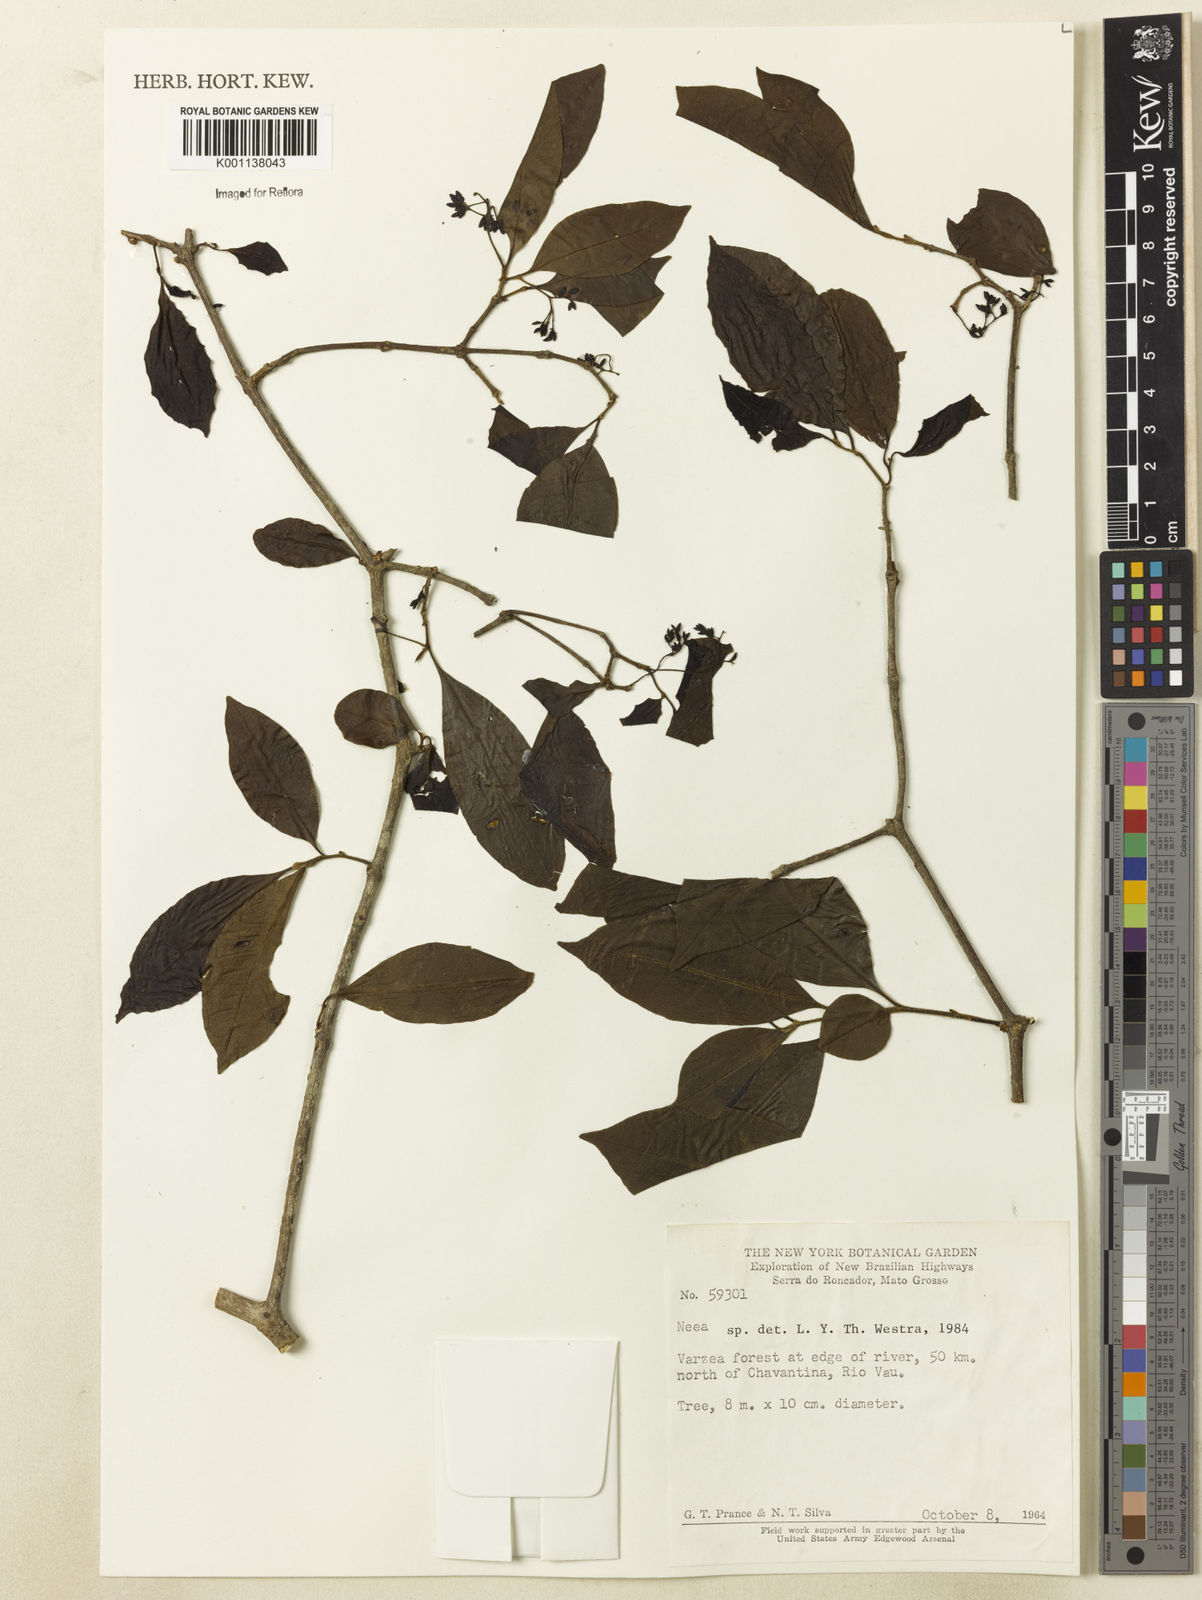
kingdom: Plantae
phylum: Tracheophyta
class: Magnoliopsida
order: Caryophyllales
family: Nyctaginaceae
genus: Neea
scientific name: Neea
